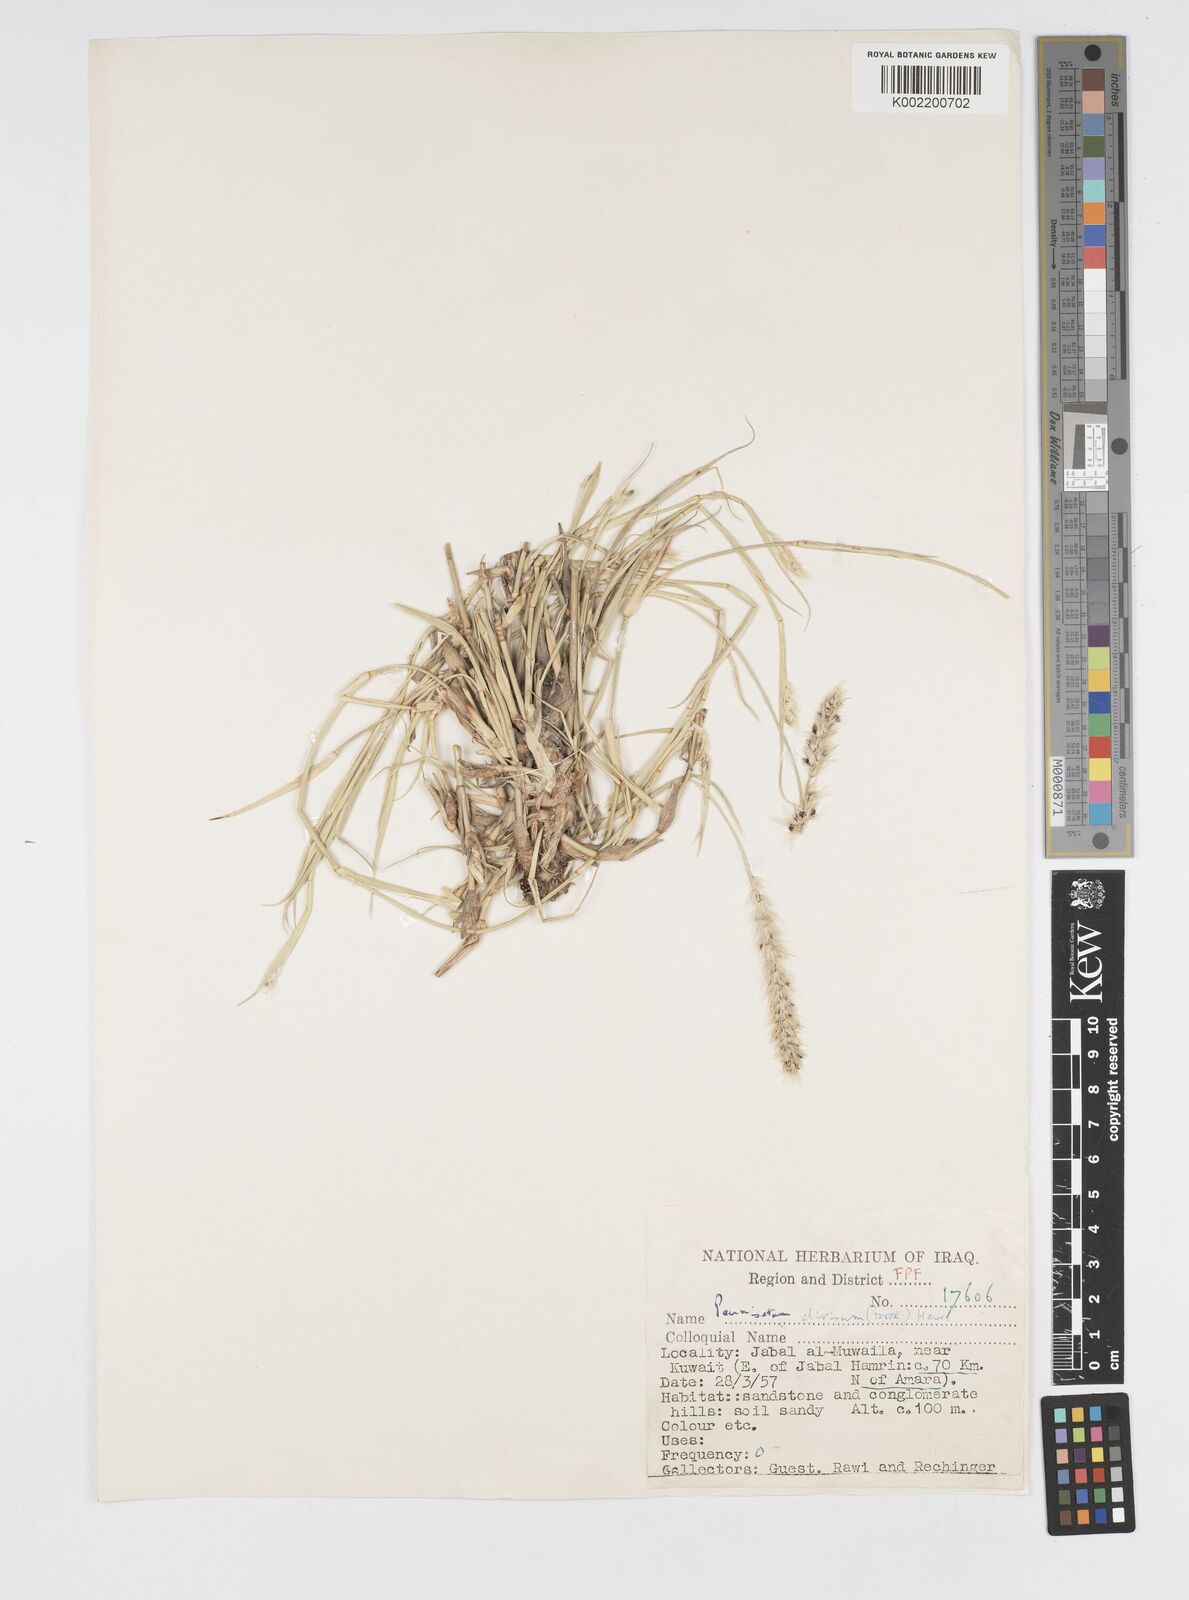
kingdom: Plantae
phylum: Tracheophyta
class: Liliopsida
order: Poales
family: Poaceae
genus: Cenchrus
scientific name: Cenchrus divisus
